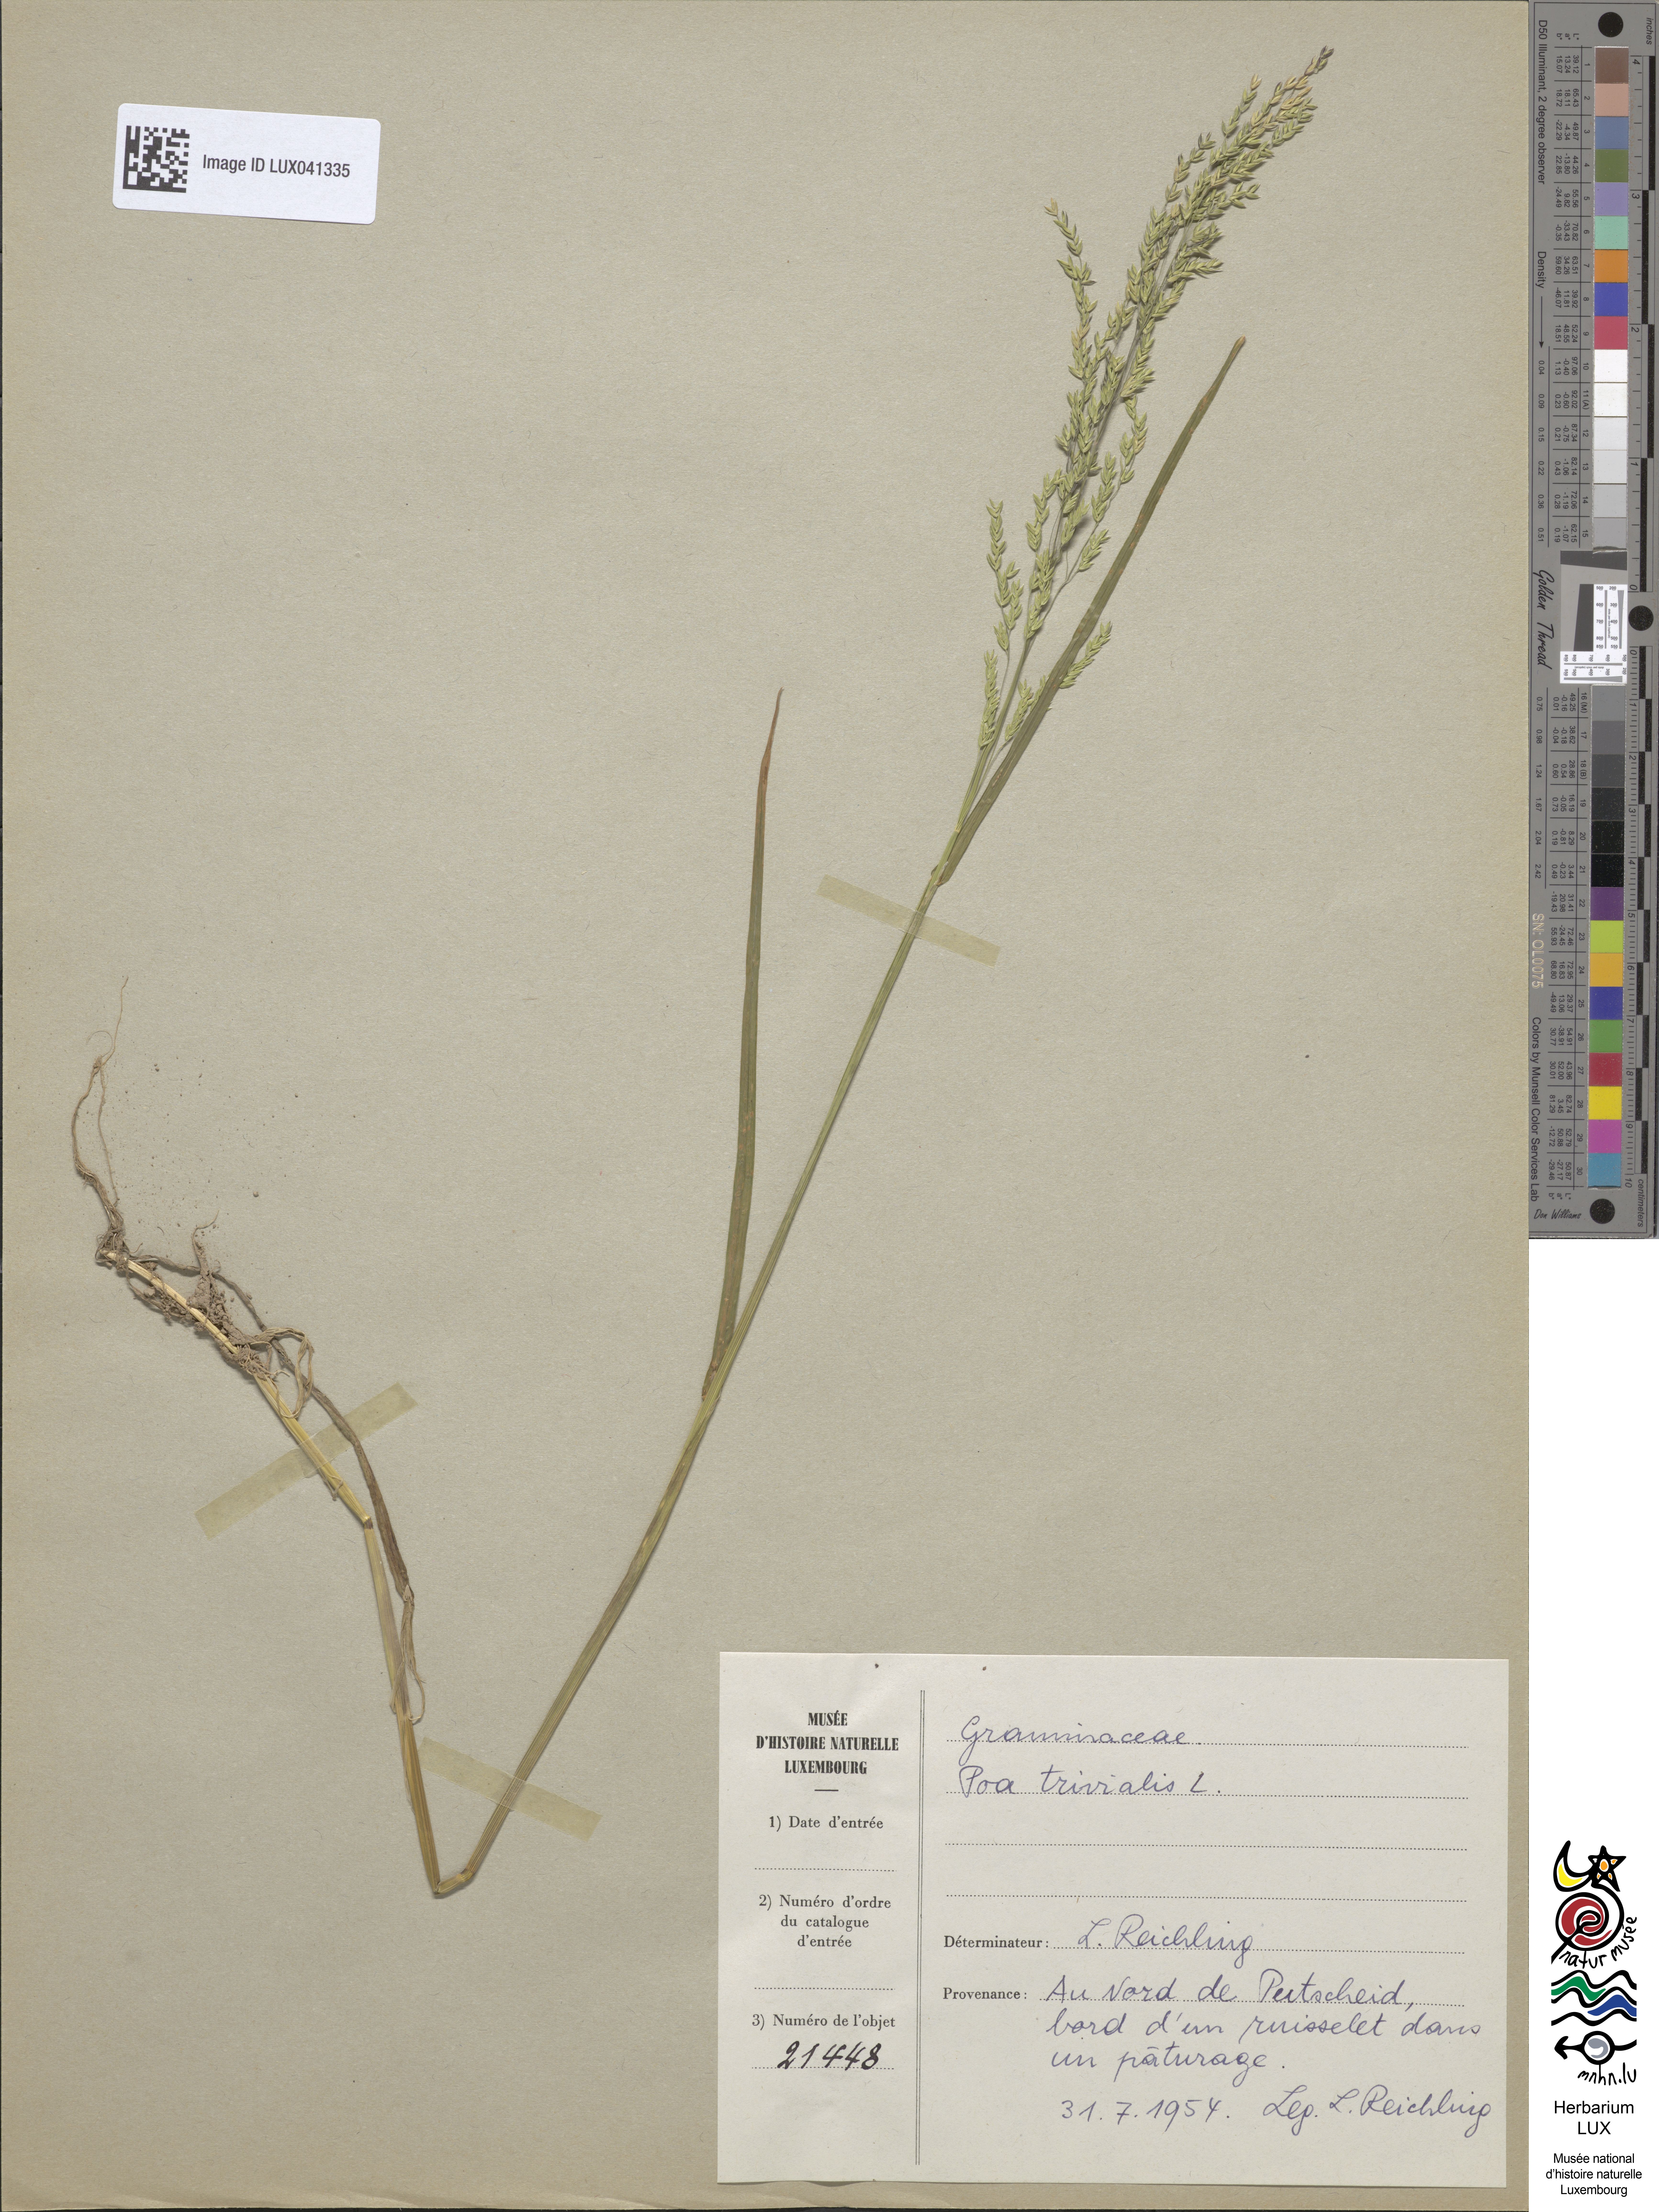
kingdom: Plantae
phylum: Tracheophyta
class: Liliopsida
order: Poales
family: Poaceae
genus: Poa
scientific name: Poa trivialis
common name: Rough bluegrass
